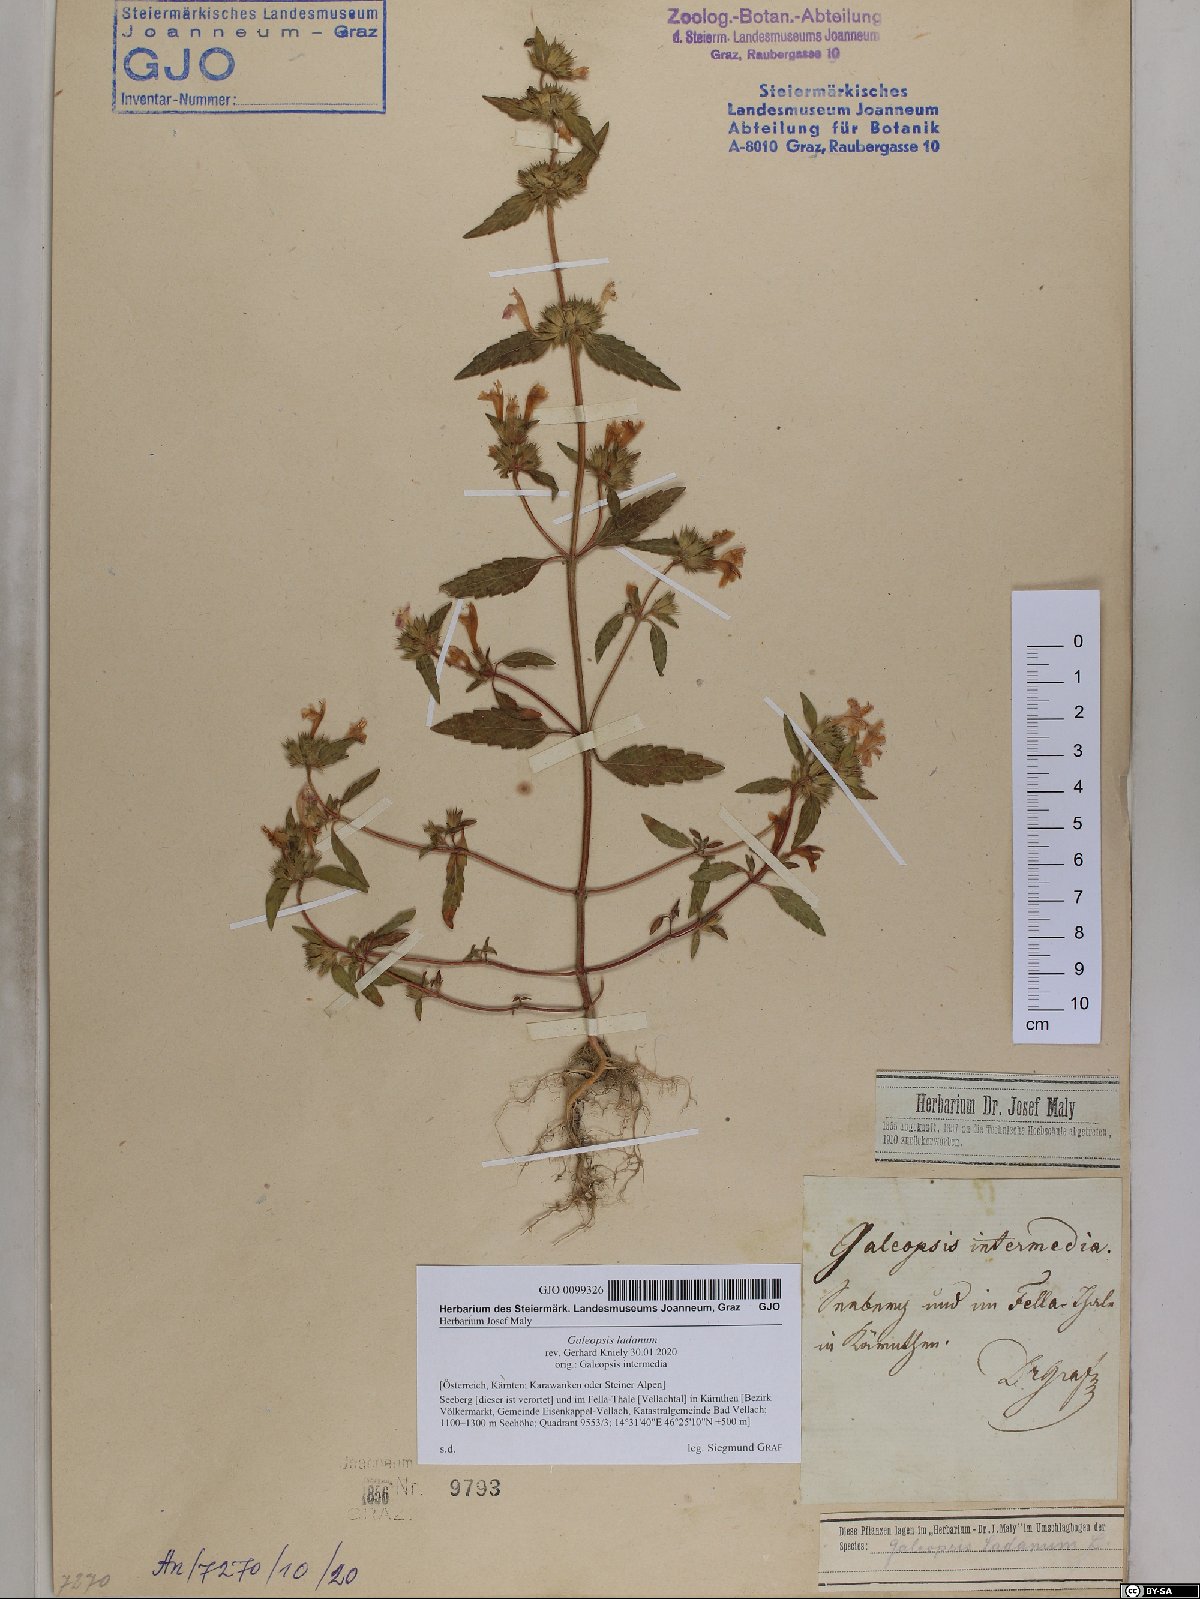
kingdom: Plantae
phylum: Tracheophyta
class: Magnoliopsida
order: Lamiales
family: Lamiaceae
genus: Galeopsis
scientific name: Galeopsis ladanum
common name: Broad-leaved hemp-nettle
